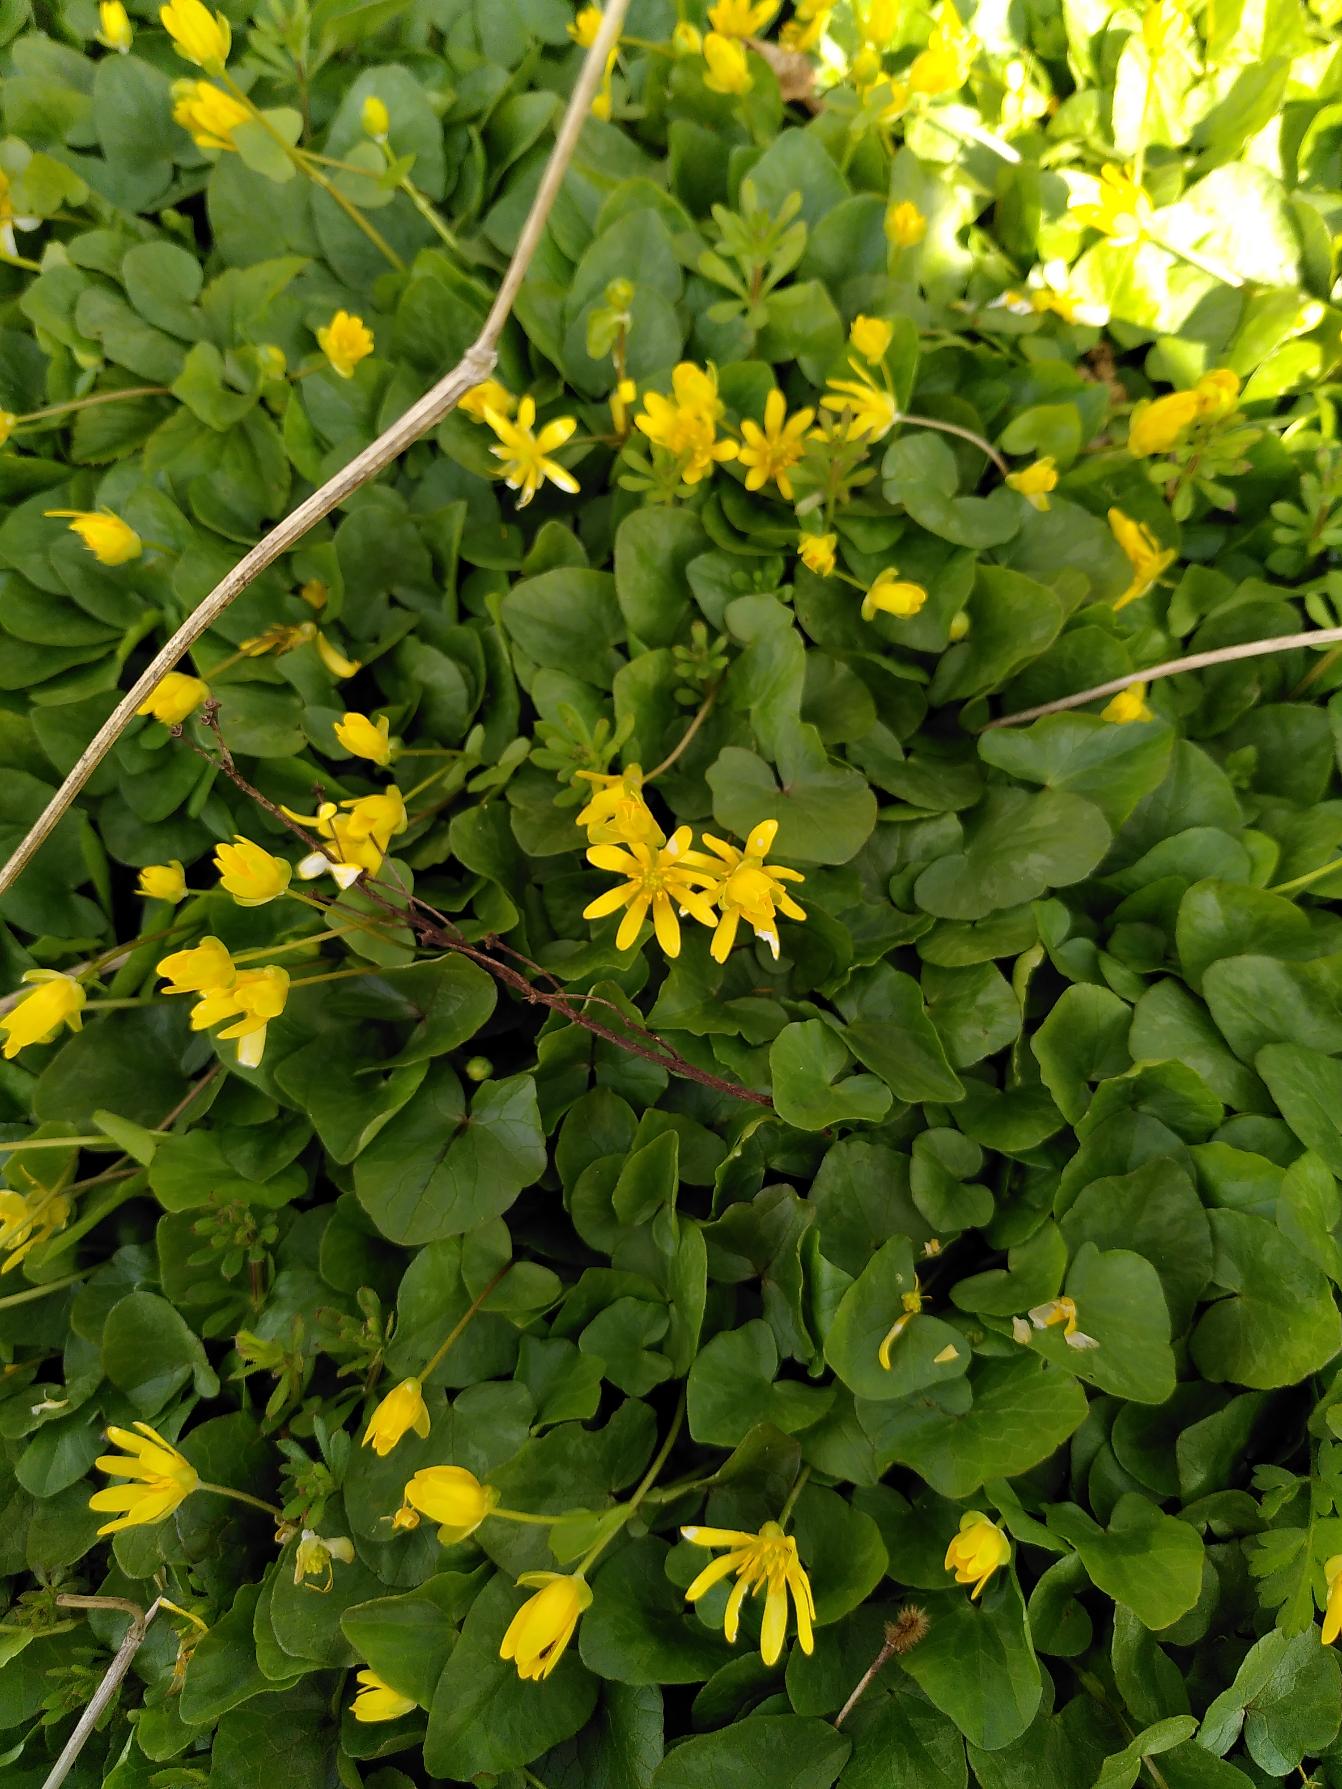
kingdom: Plantae
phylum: Tracheophyta
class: Magnoliopsida
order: Ranunculales
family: Ranunculaceae
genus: Ficaria
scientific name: Ficaria verna
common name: Vorterod
